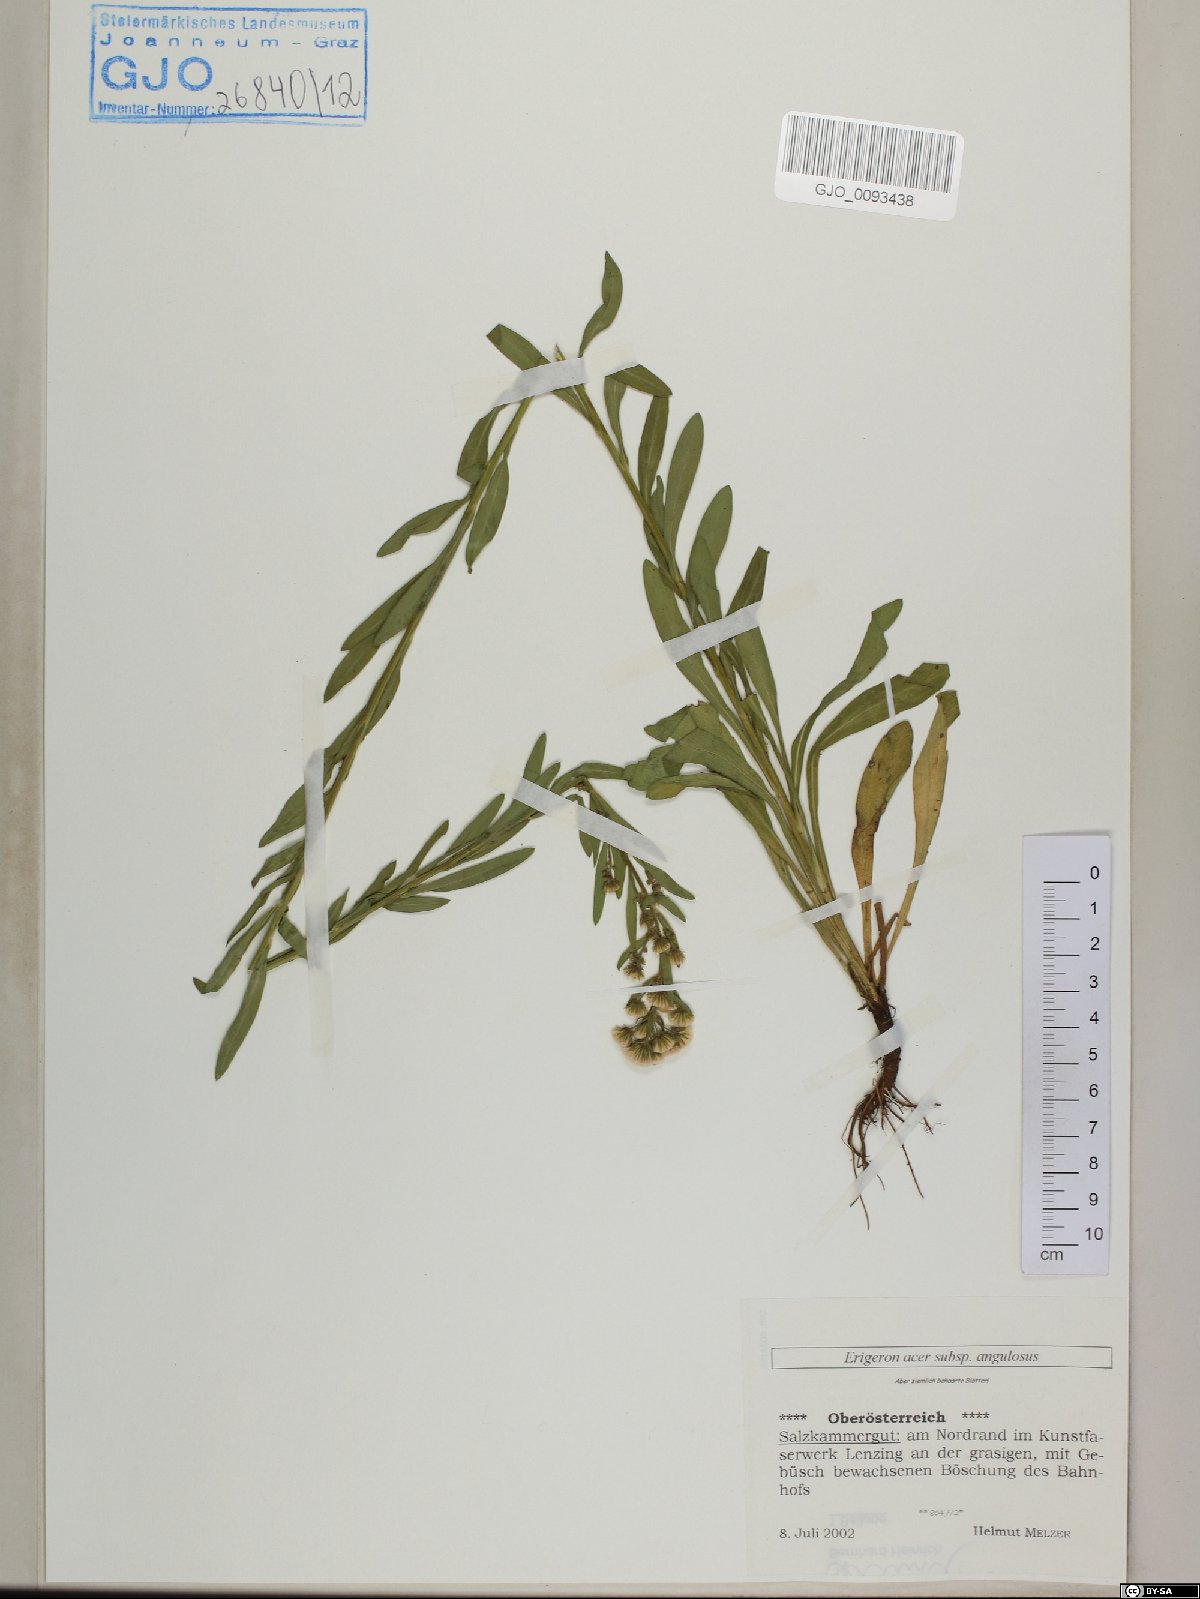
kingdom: Plantae
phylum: Tracheophyta
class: Magnoliopsida
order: Asterales
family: Asteraceae
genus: Erigeron
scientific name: Erigeron angulosus
